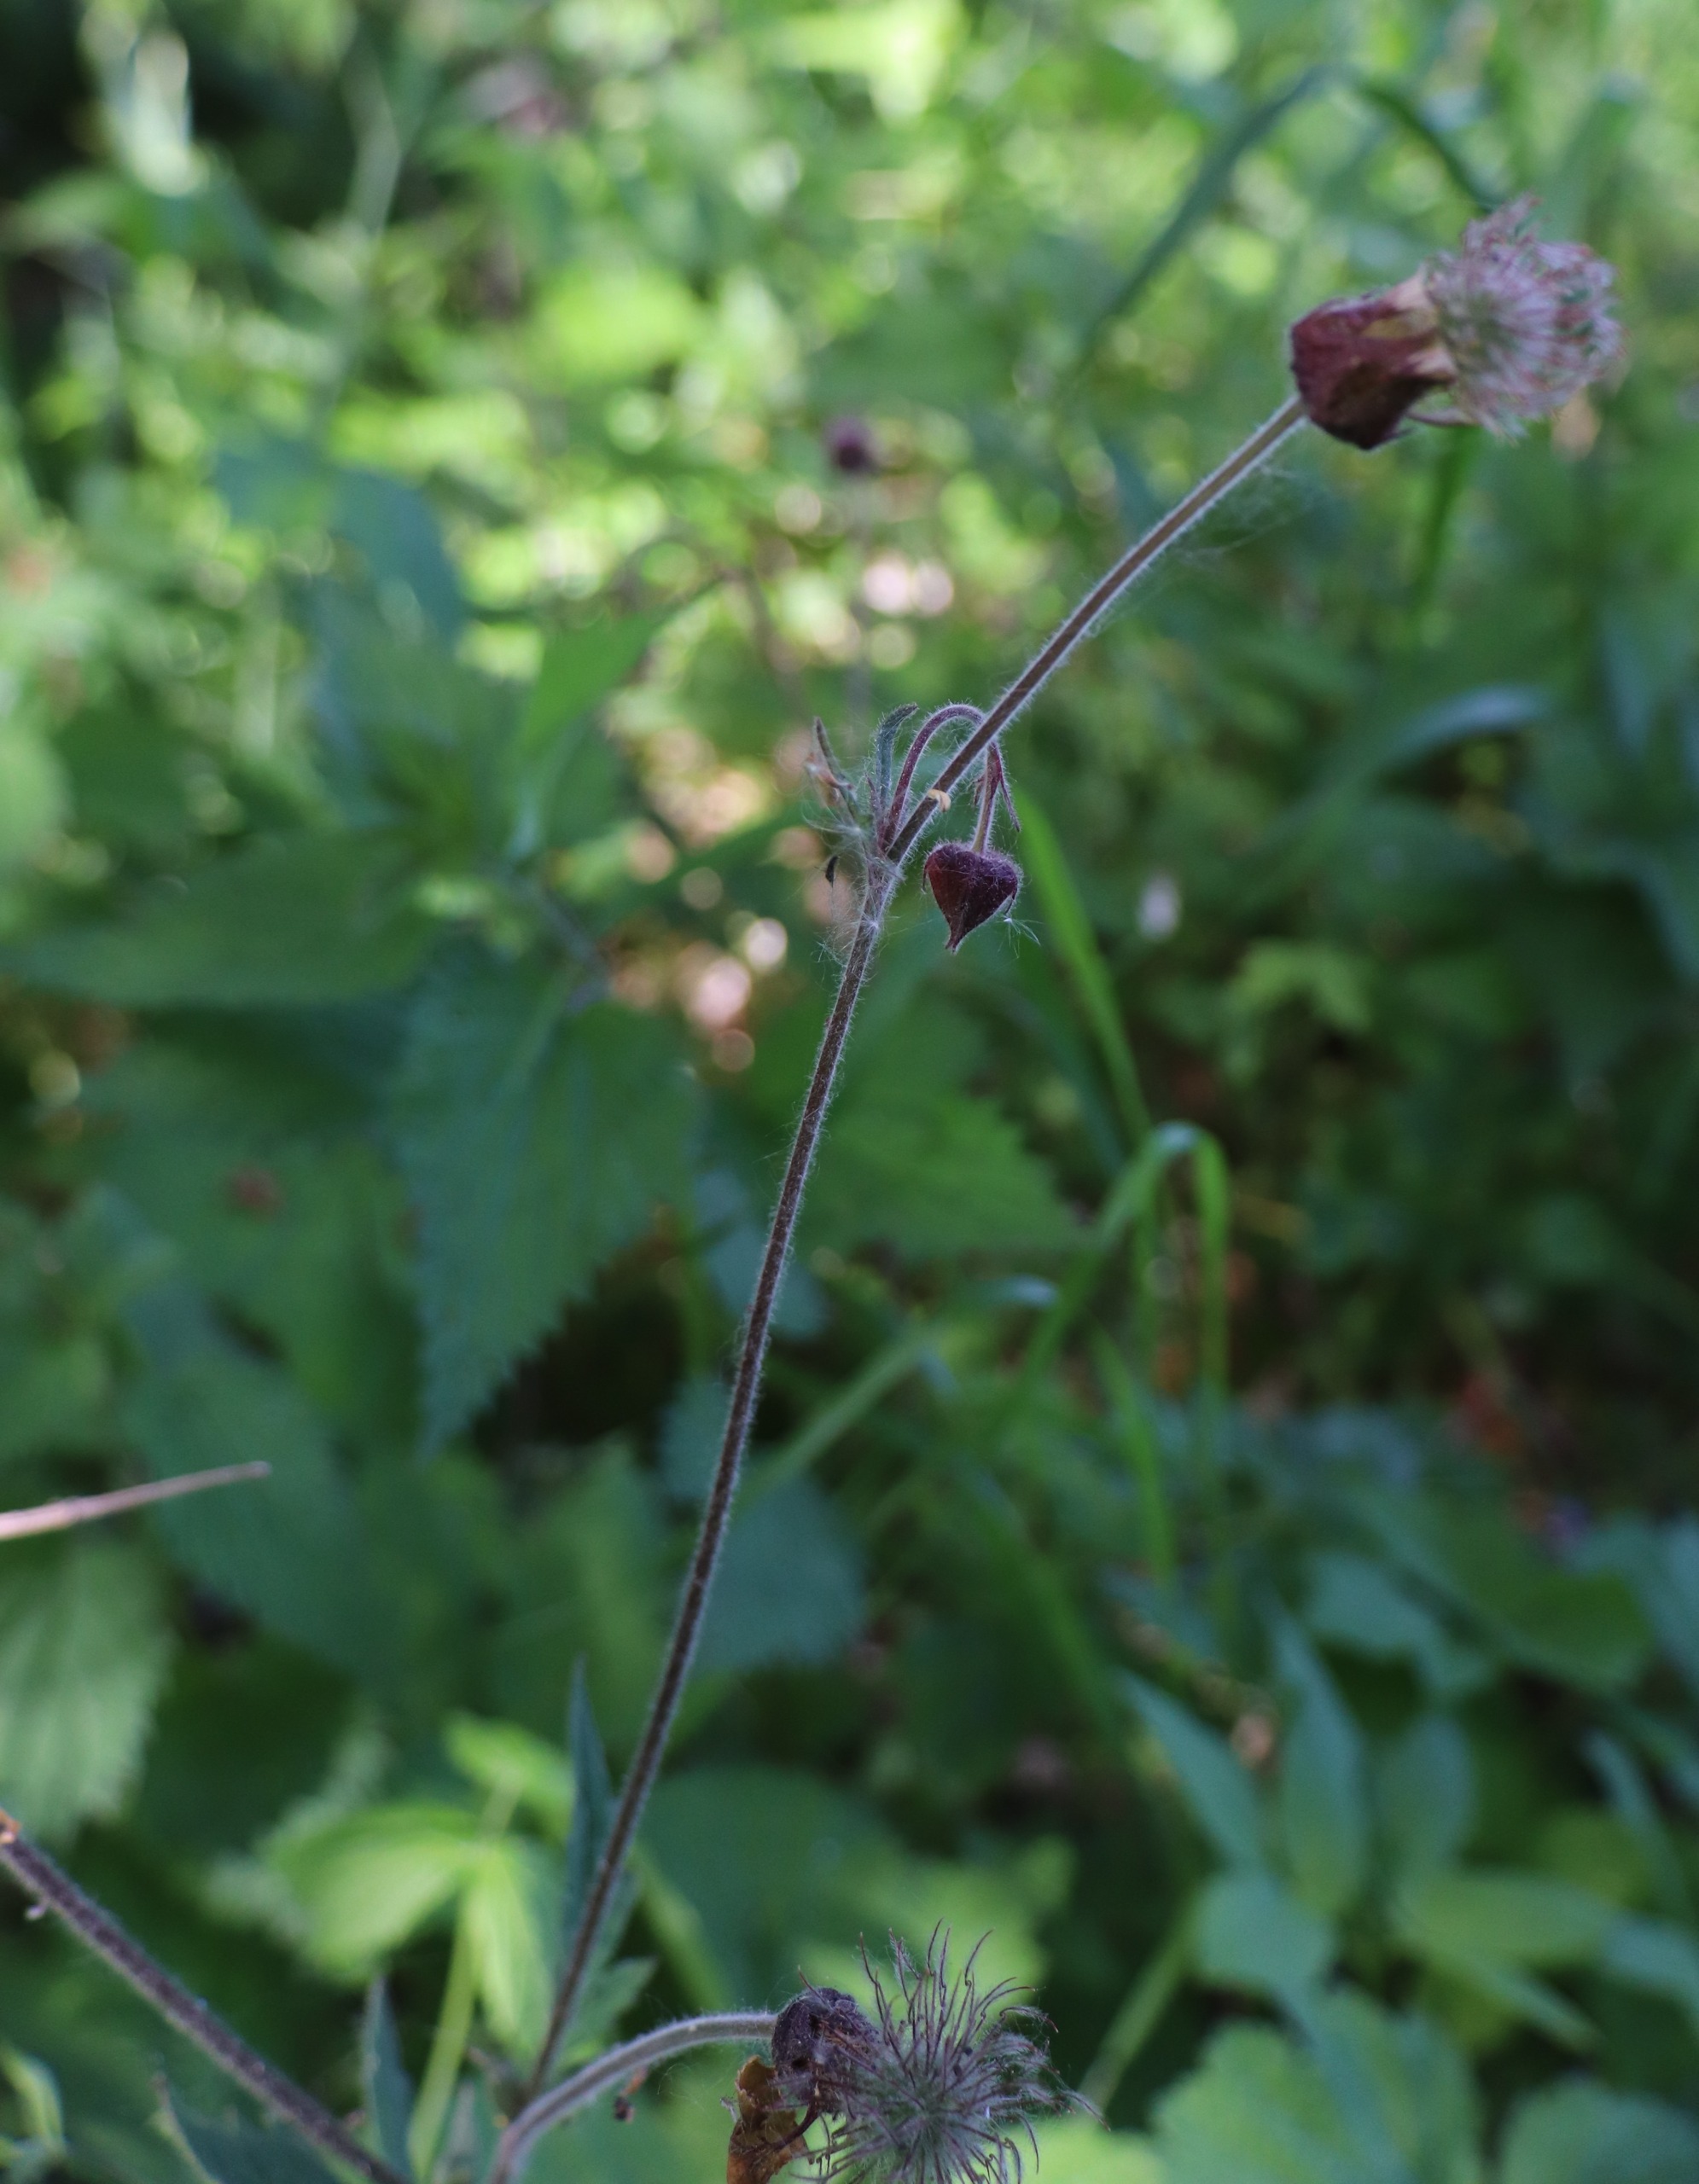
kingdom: Plantae
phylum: Tracheophyta
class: Magnoliopsida
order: Rosales
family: Rosaceae
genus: Geum
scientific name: Geum rivale
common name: Eng-nellikerod
